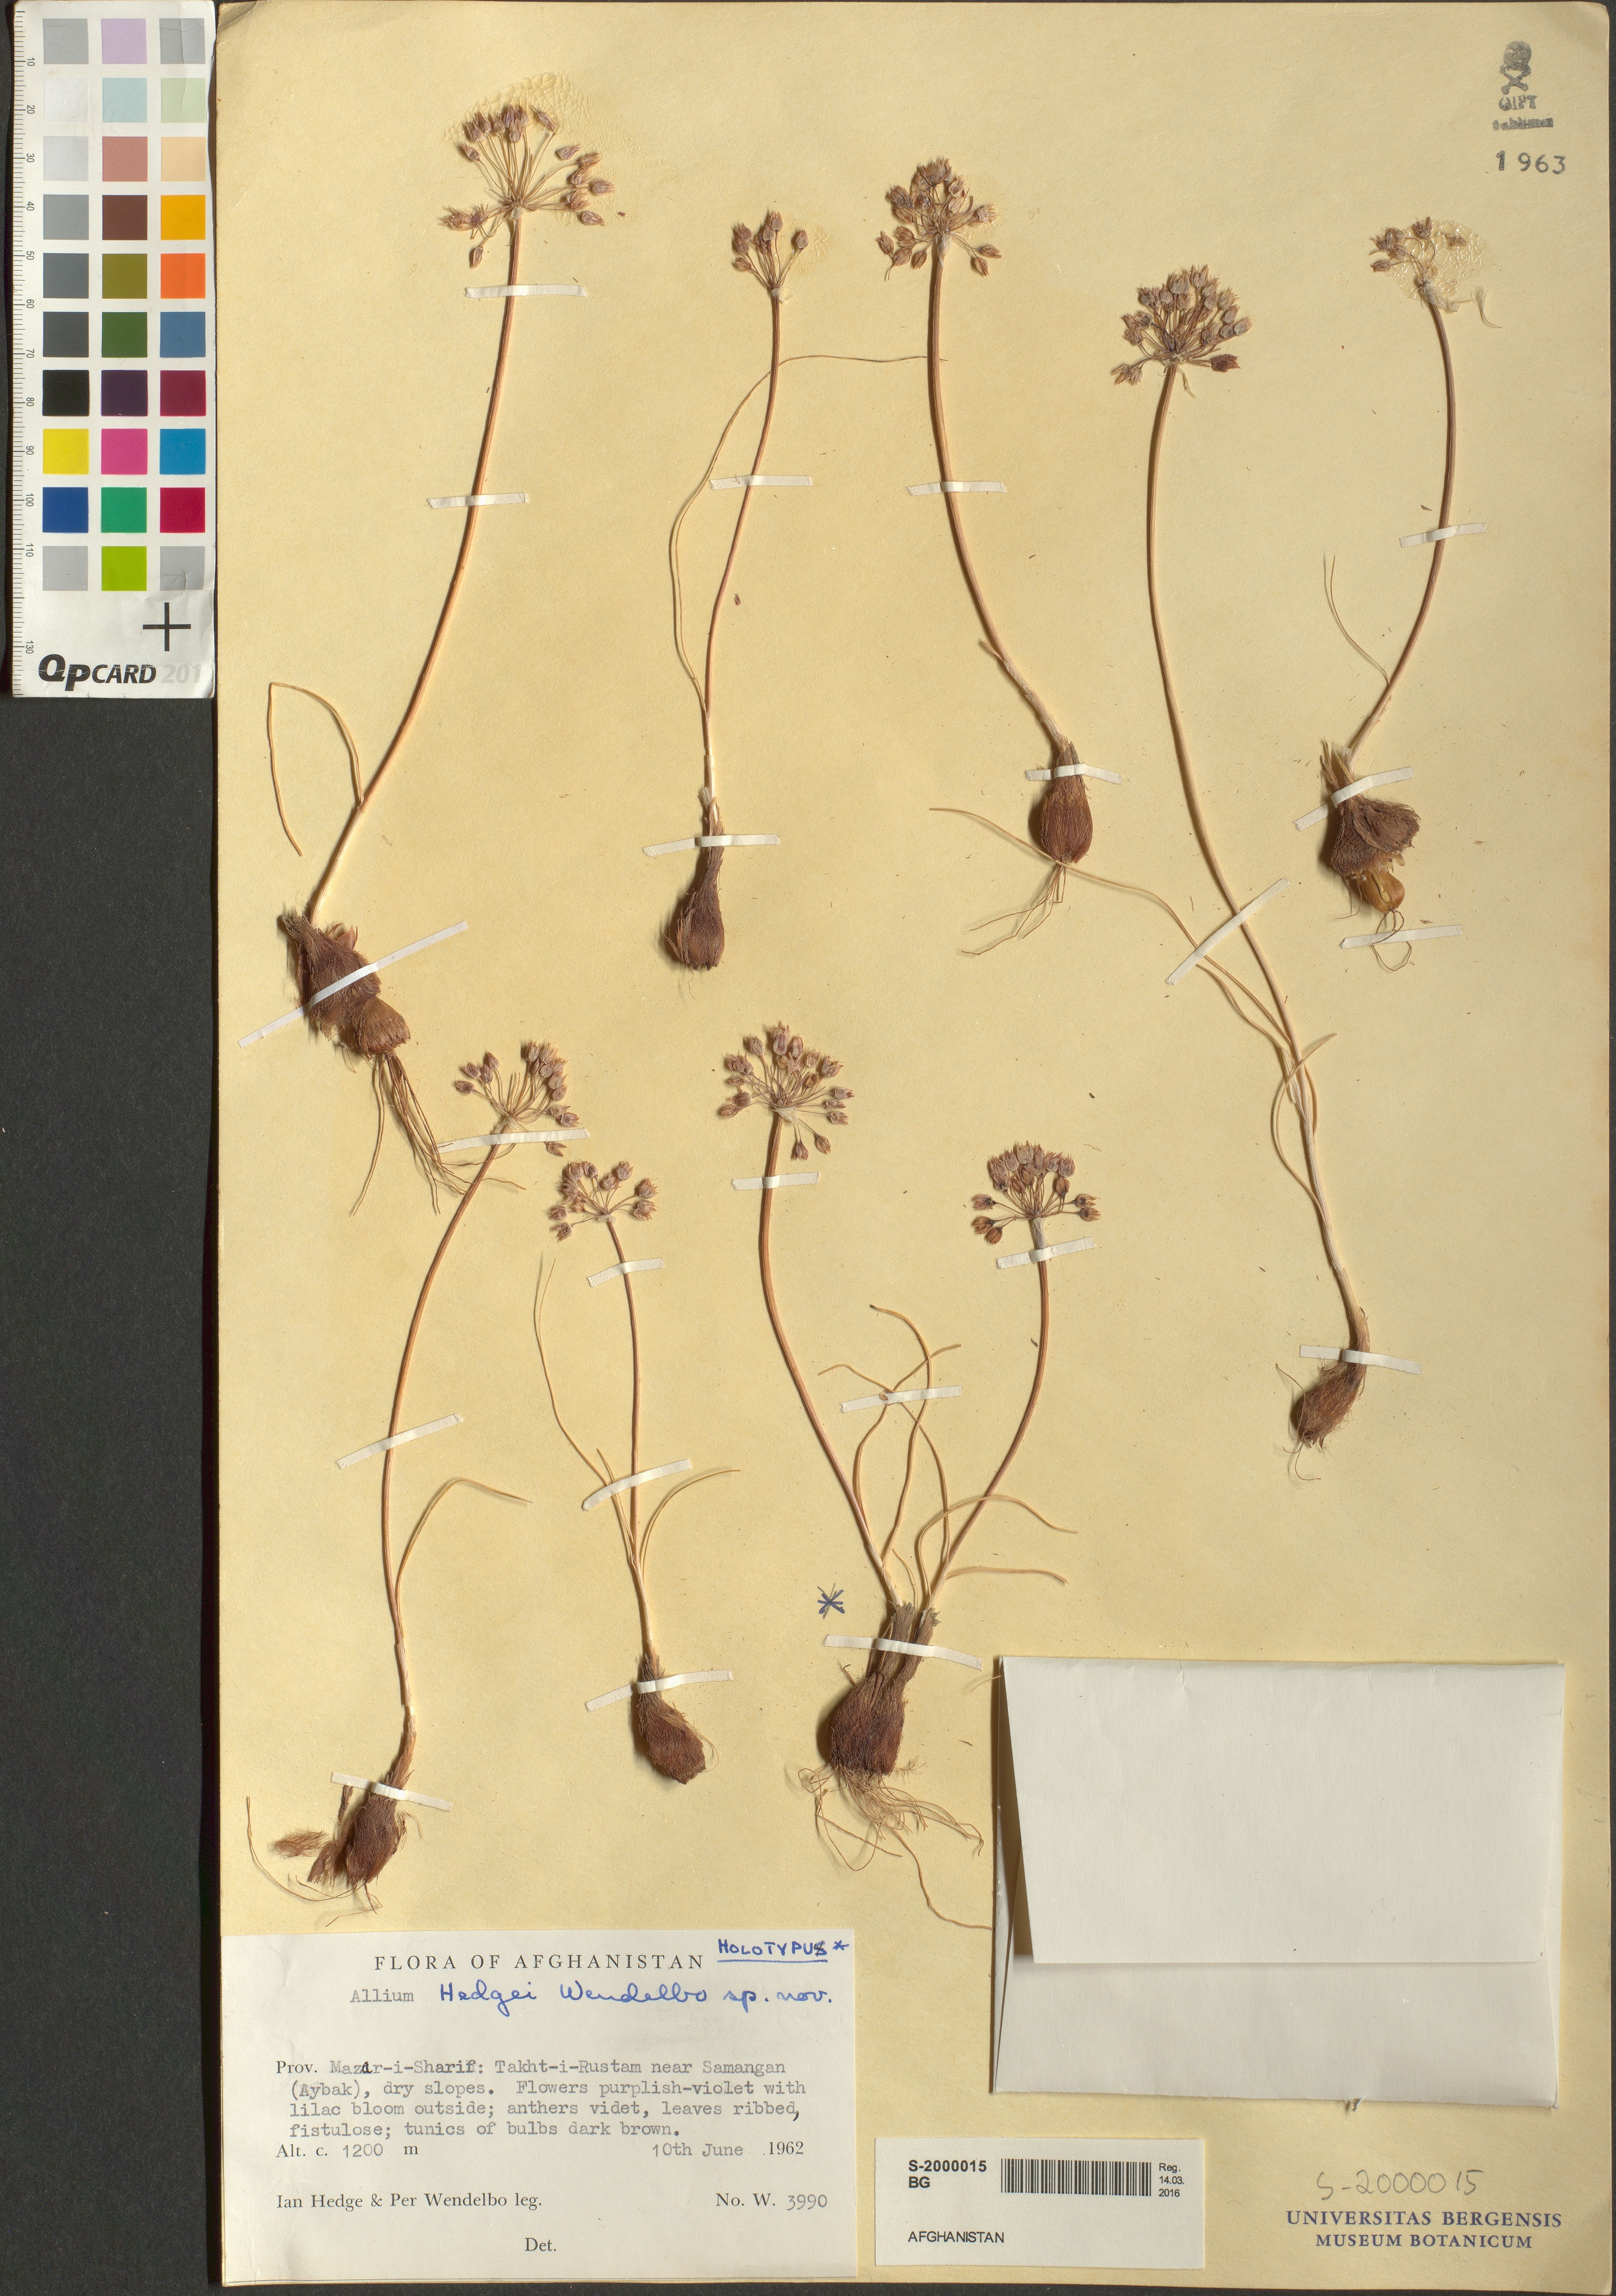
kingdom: Plantae
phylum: Tracheophyta
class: Liliopsida
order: Asparagales
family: Amaryllidaceae
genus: Allium
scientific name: Allium hedgei
